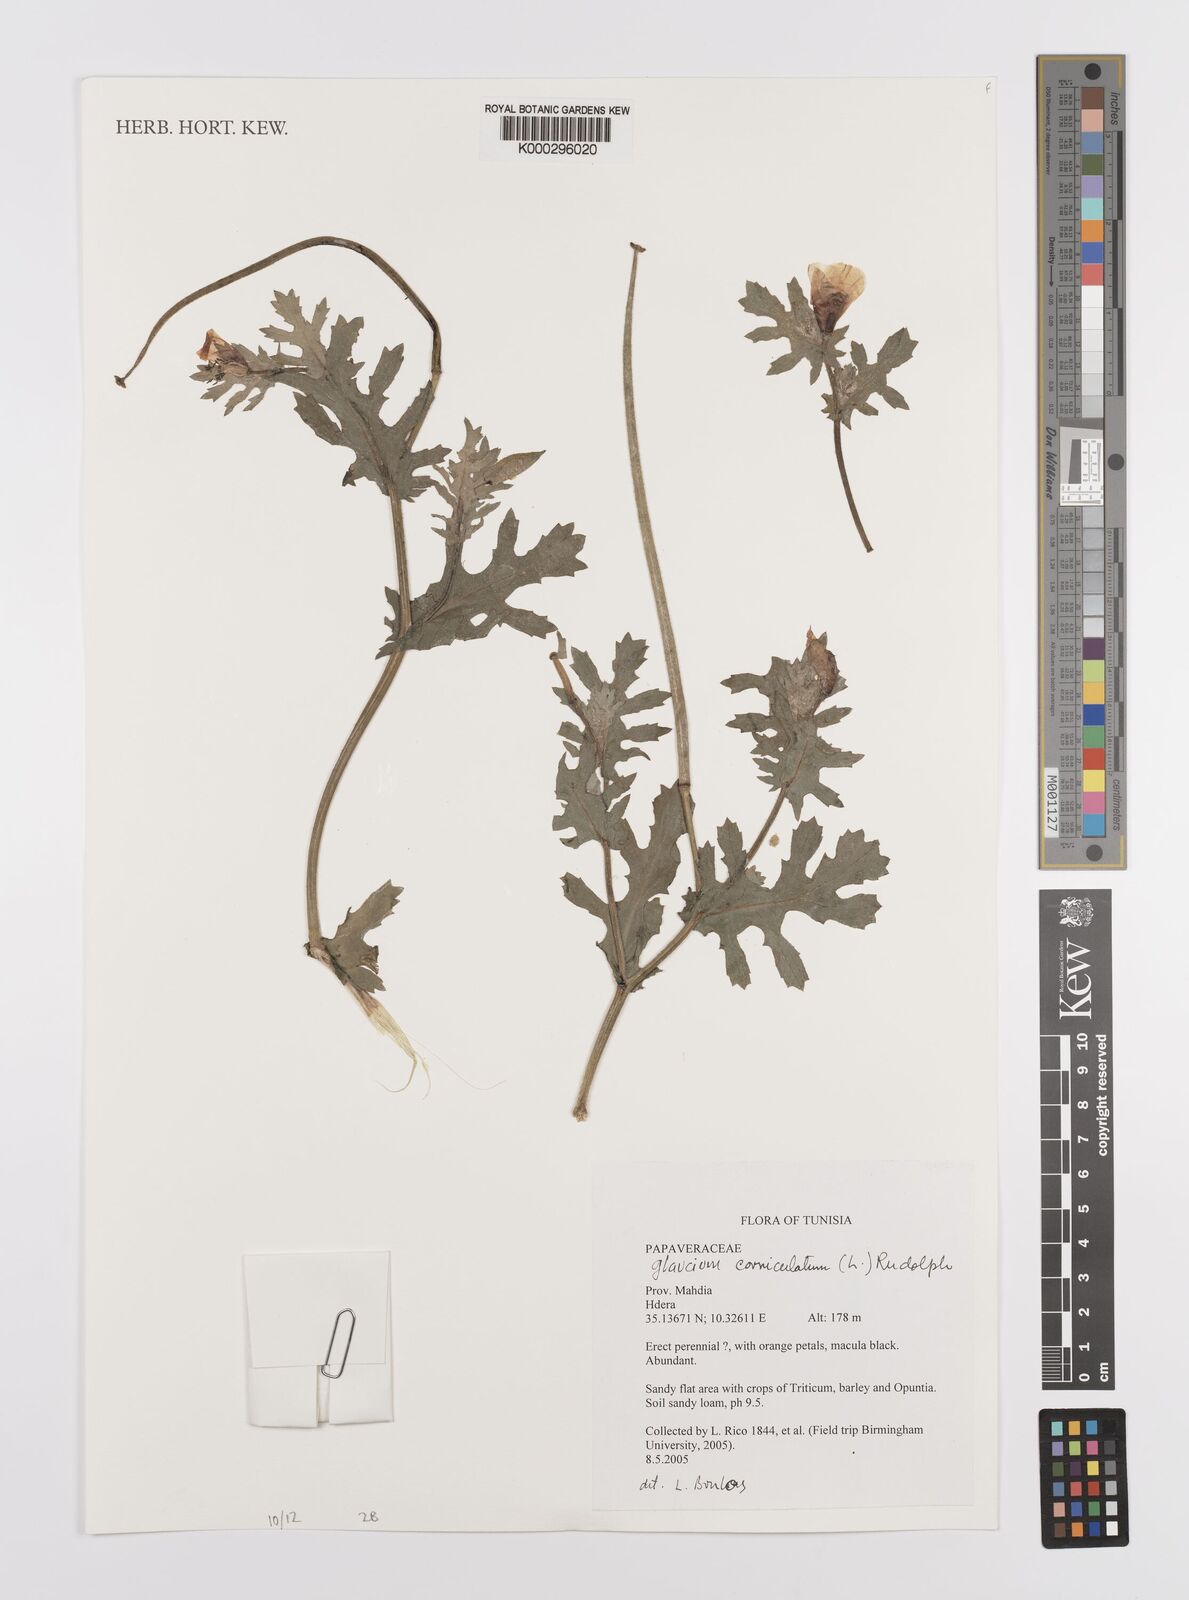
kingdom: Plantae
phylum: Tracheophyta
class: Magnoliopsida
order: Ranunculales
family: Papaveraceae
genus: Glaucium
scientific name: Glaucium
